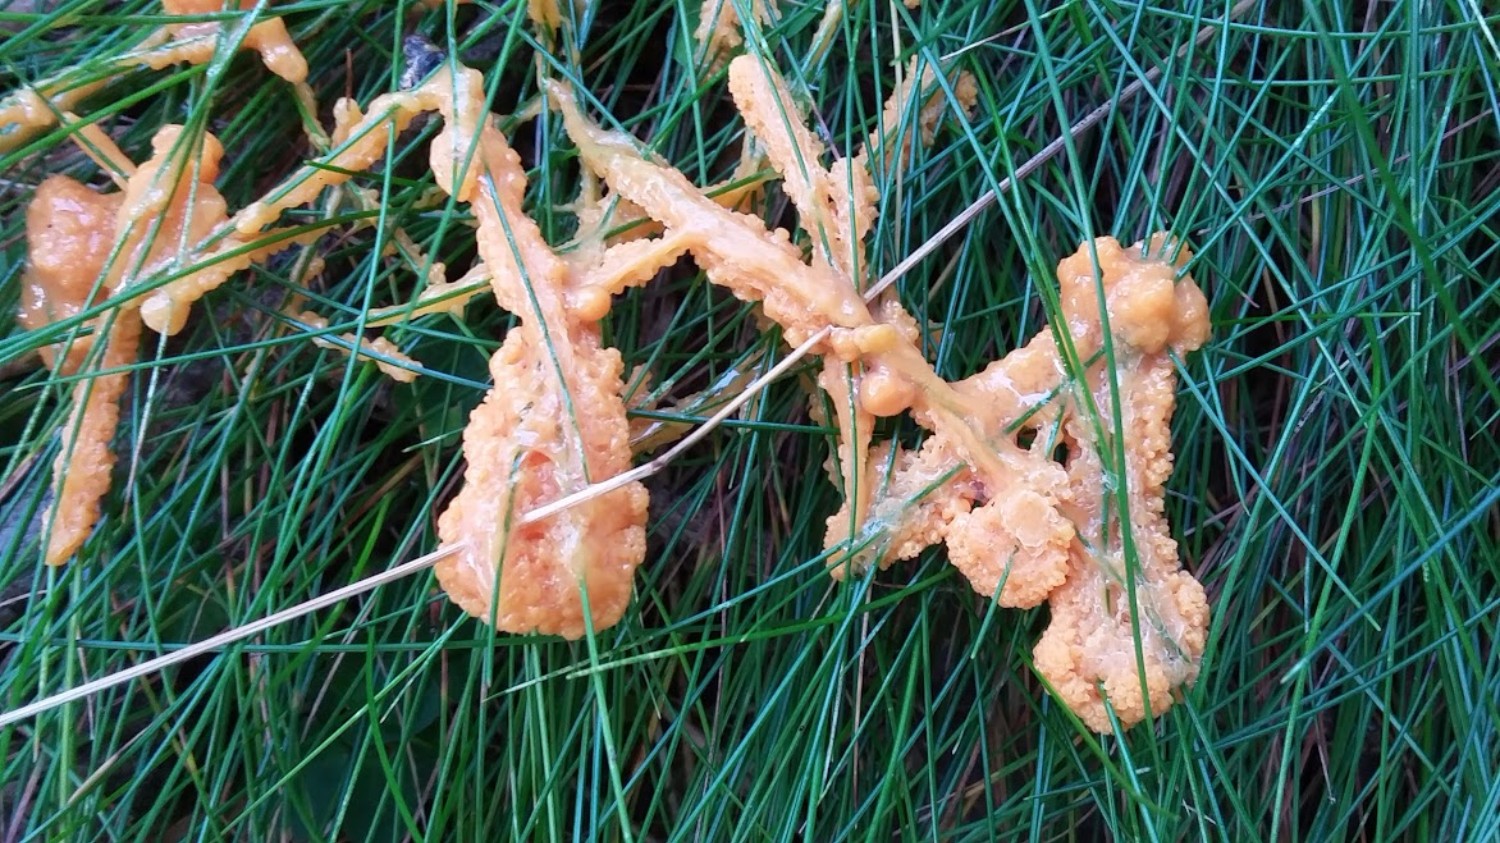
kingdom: Protozoa
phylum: Mycetozoa
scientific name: Mycetozoa
